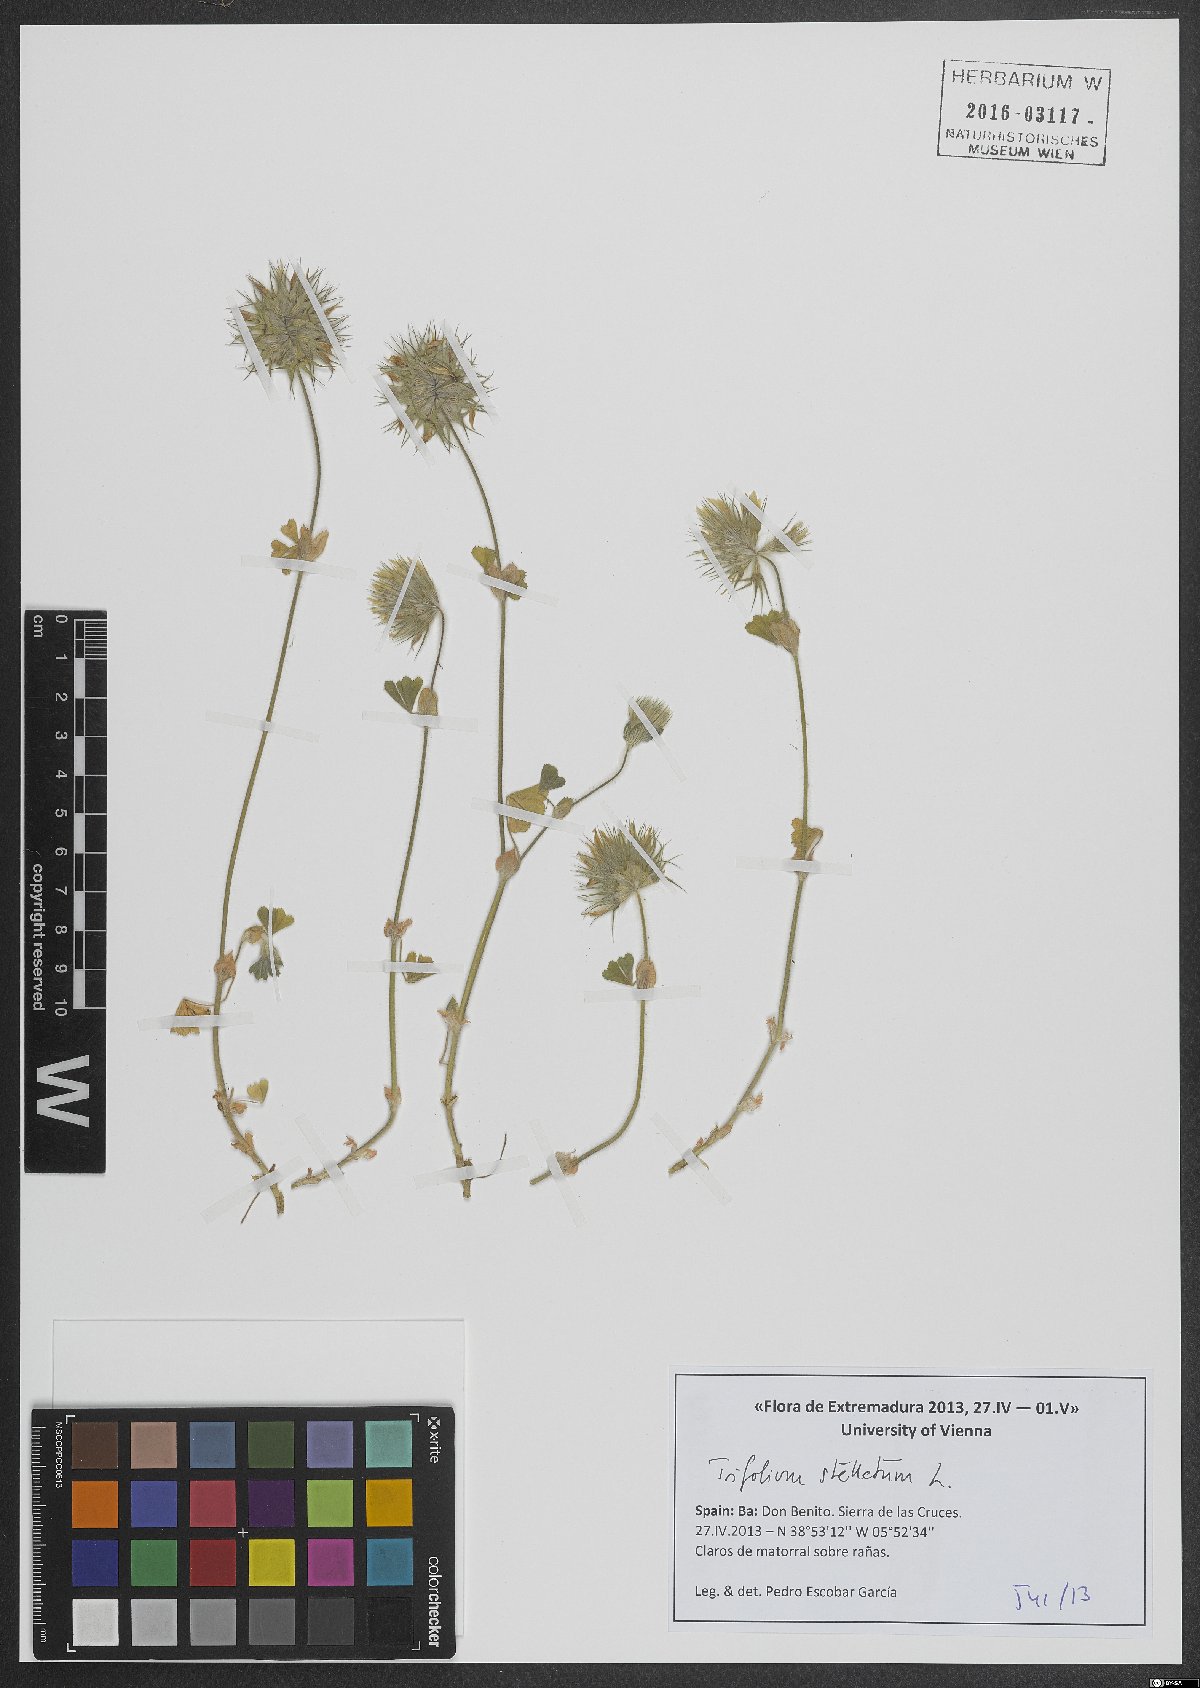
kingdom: Plantae
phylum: Tracheophyta
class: Magnoliopsida
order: Fabales
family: Fabaceae
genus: Trifolium
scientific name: Trifolium stellatum
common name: Starry clover
